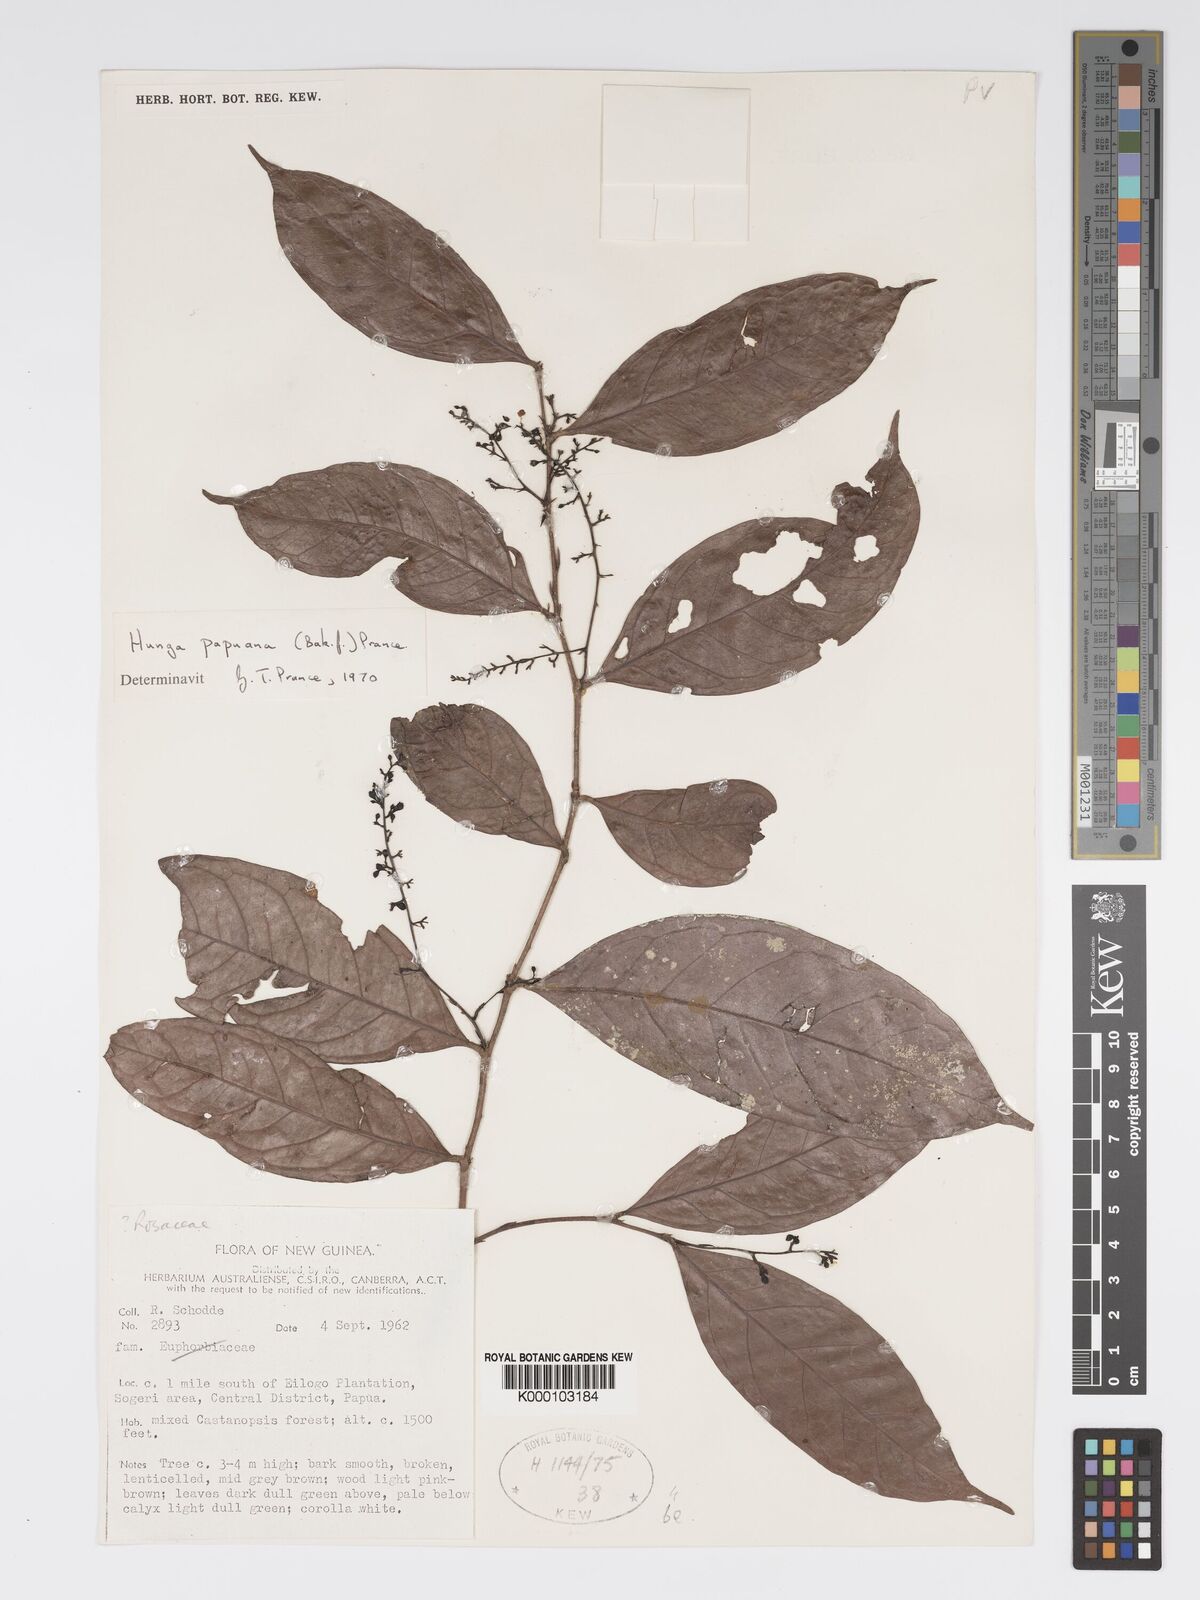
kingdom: Plantae
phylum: Tracheophyta
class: Magnoliopsida
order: Malpighiales
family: Chrysobalanaceae
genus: Hunga
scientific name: Hunga papuana
